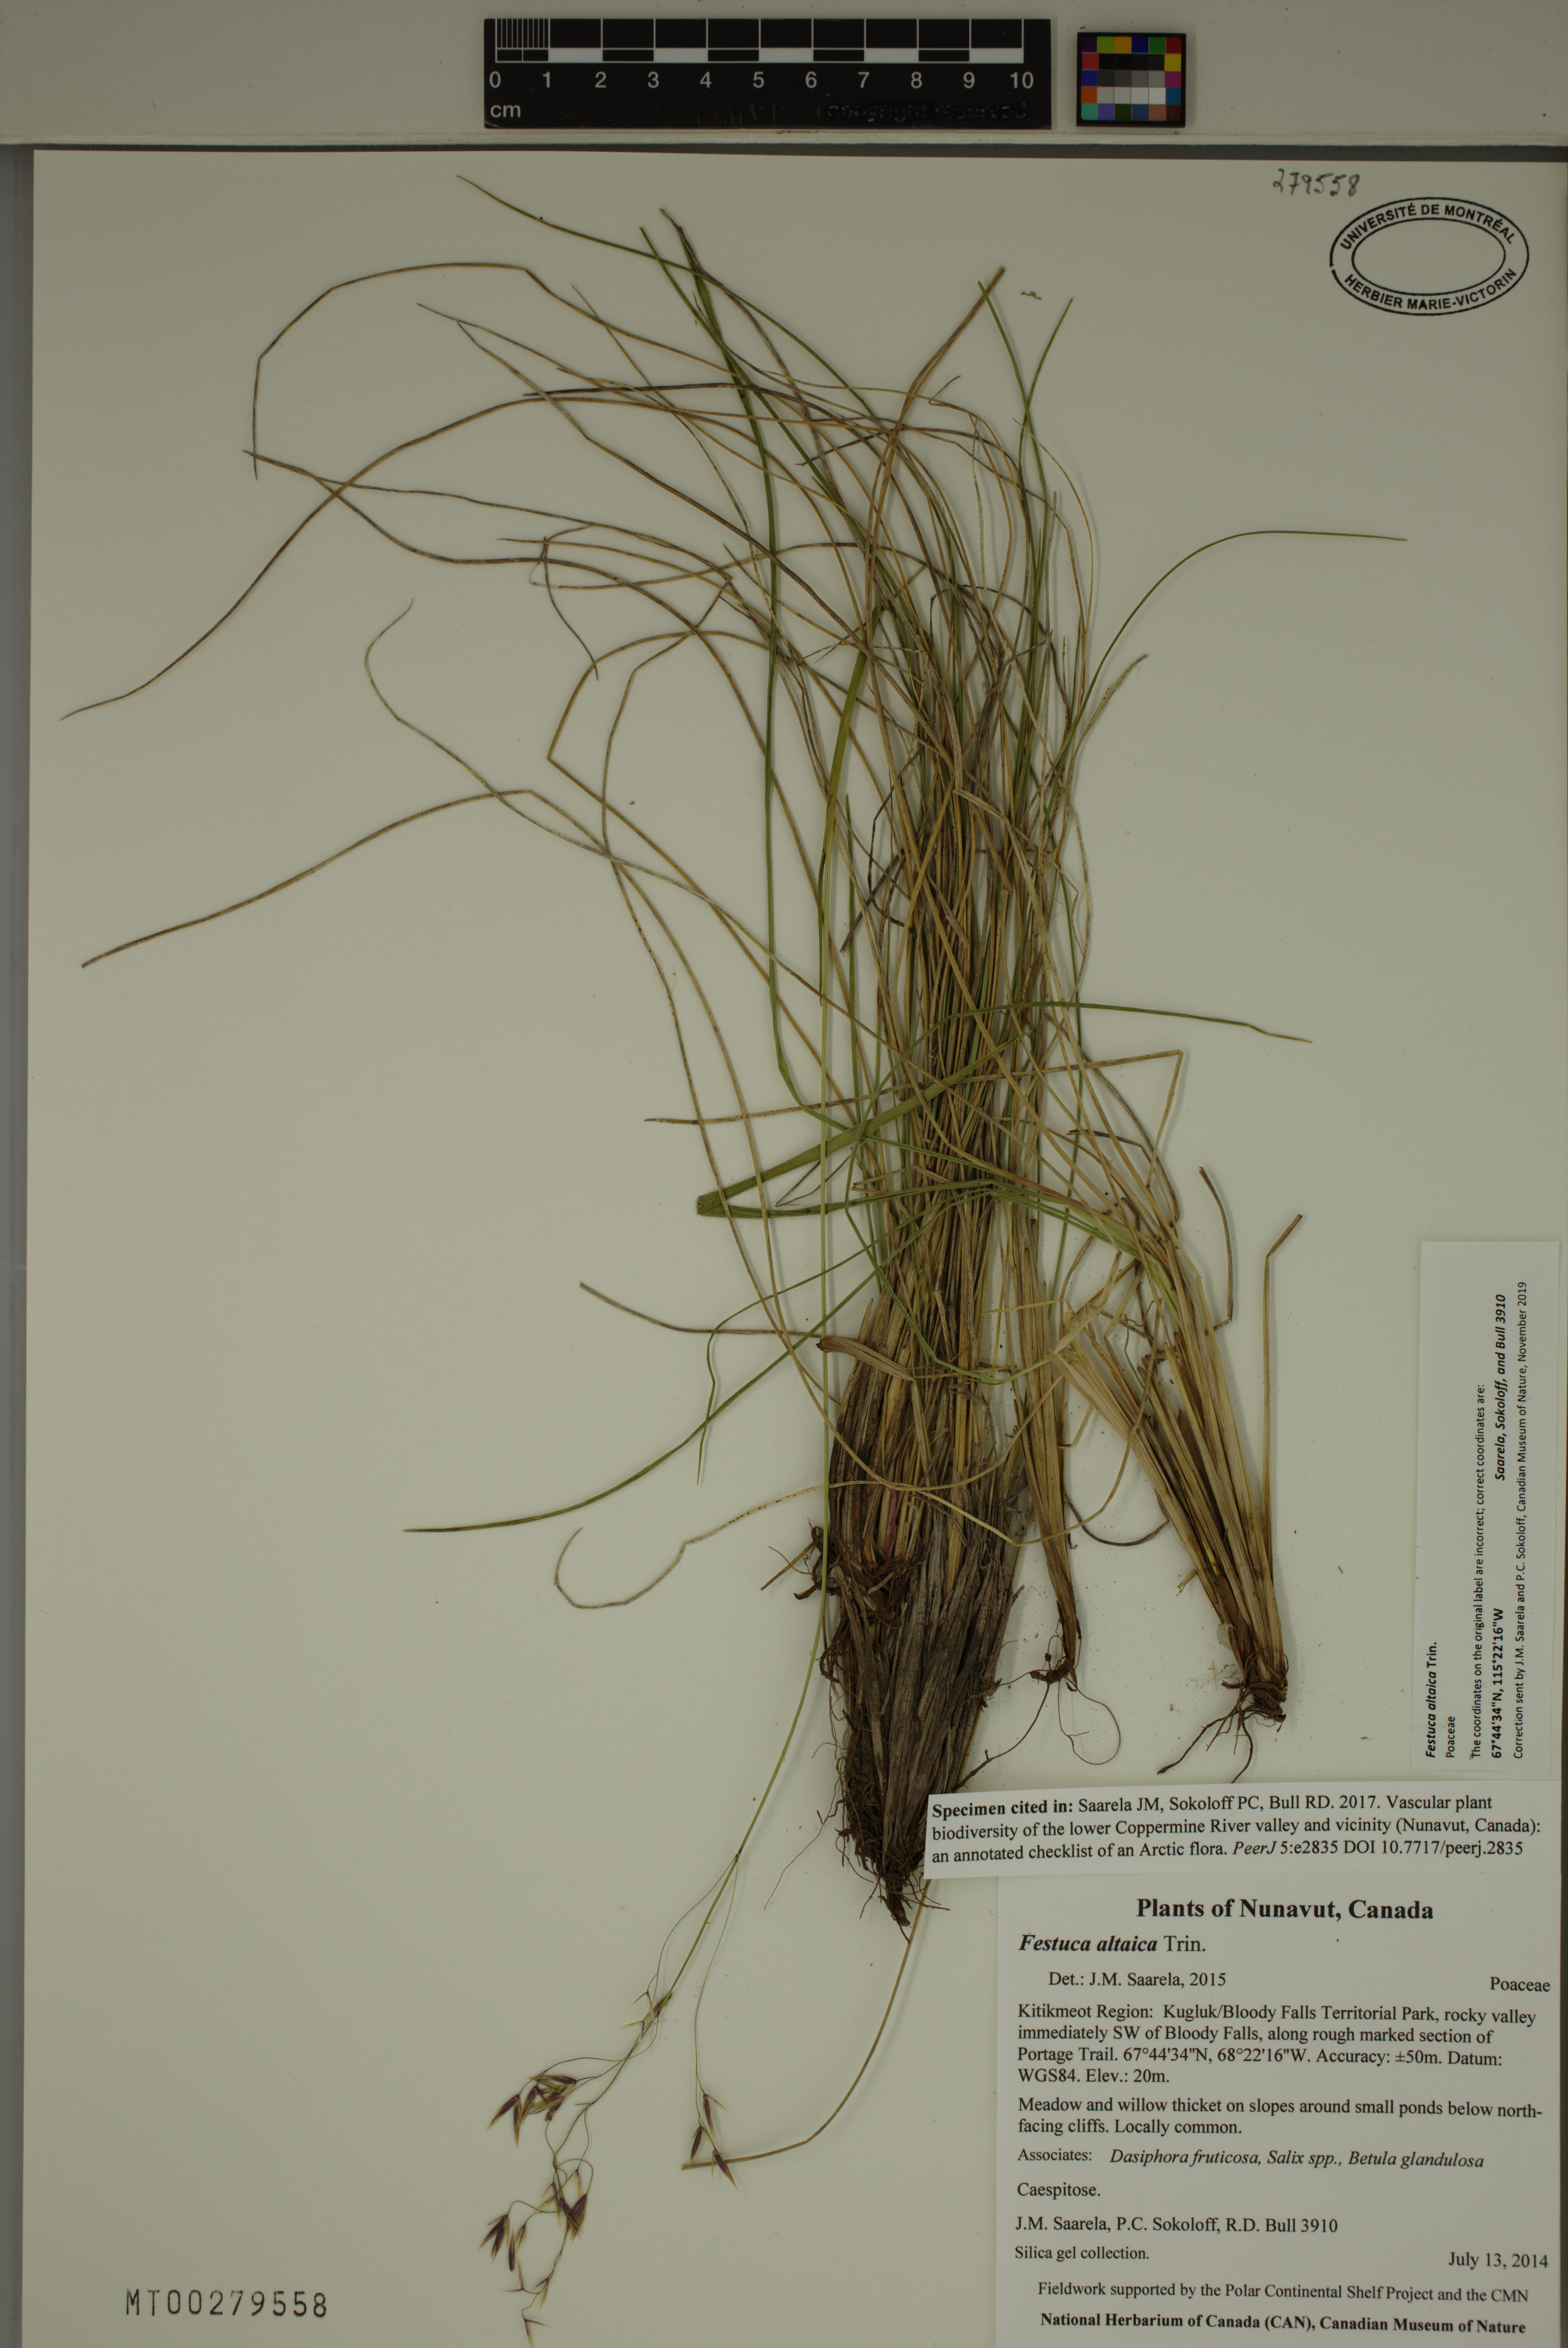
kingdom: Plantae
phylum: Tracheophyta
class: Liliopsida
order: Poales
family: Poaceae
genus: Festuca
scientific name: Festuca altaica
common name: Northern rough fescue
